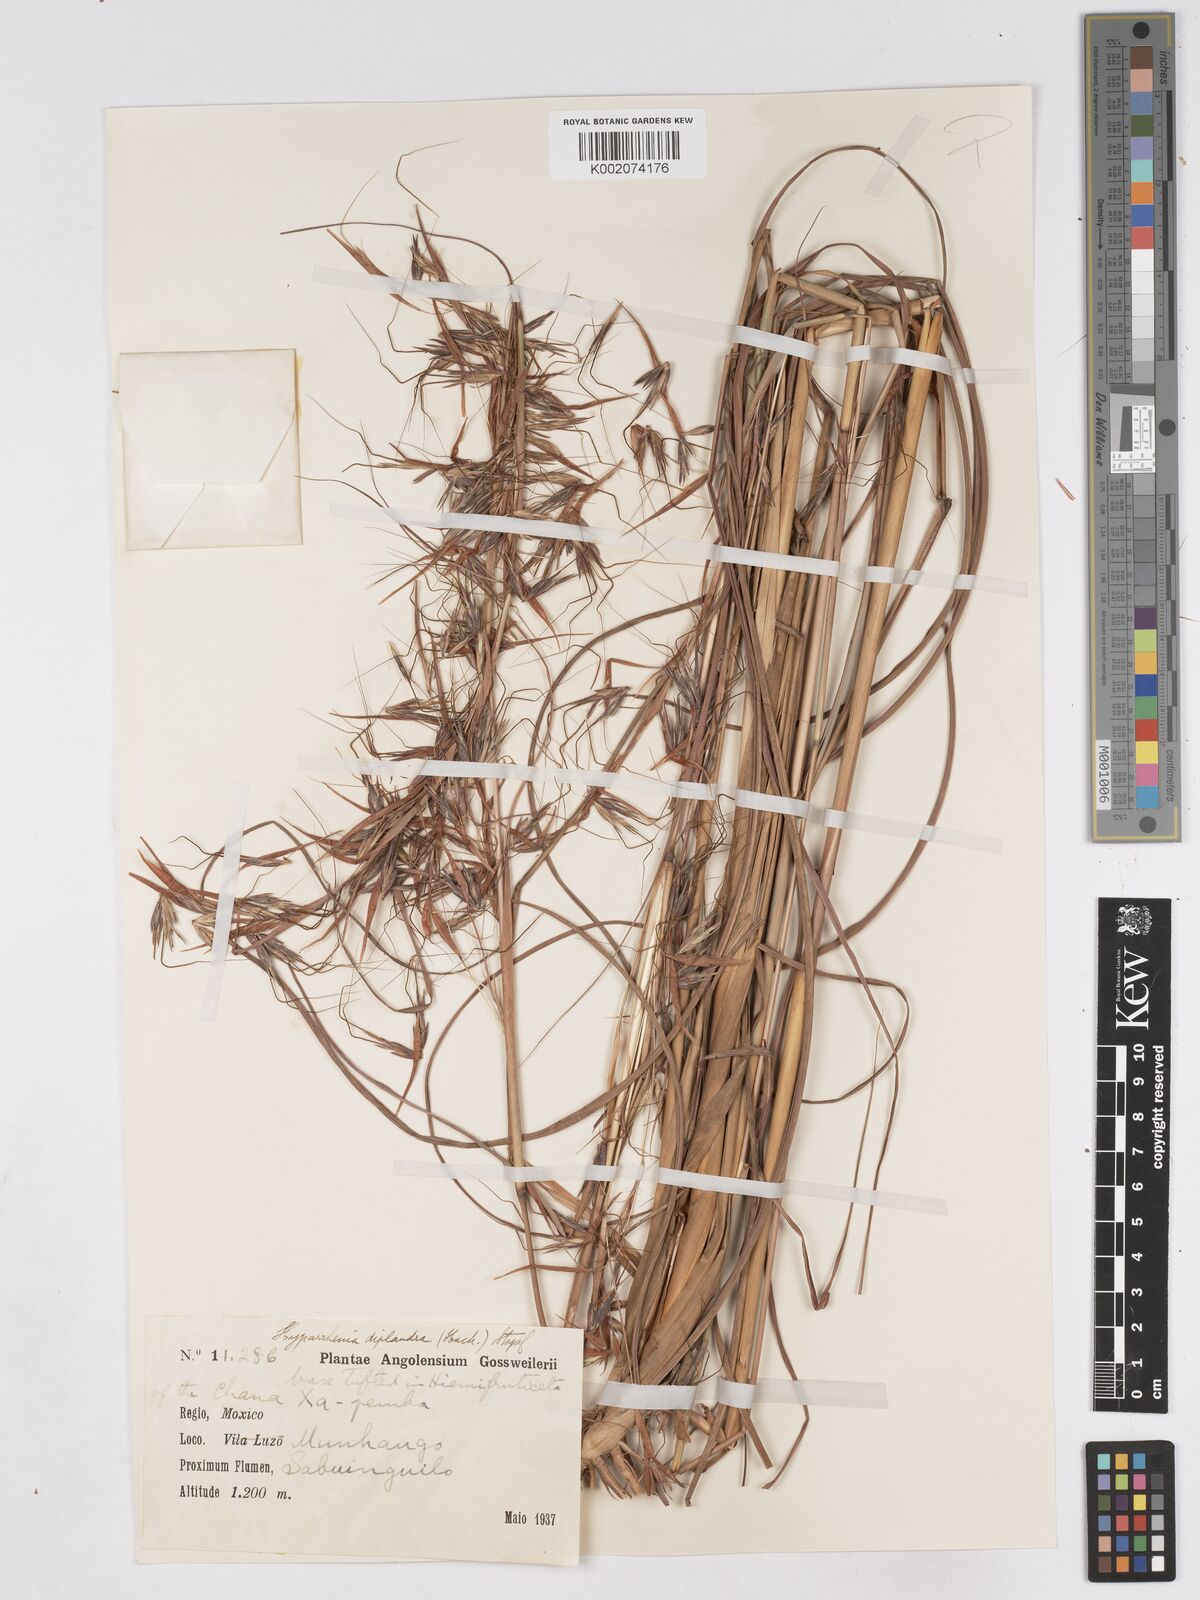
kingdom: Plantae
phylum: Tracheophyta
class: Liliopsida
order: Poales
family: Poaceae
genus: Hyparrhenia
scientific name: Hyparrhenia diplandra
